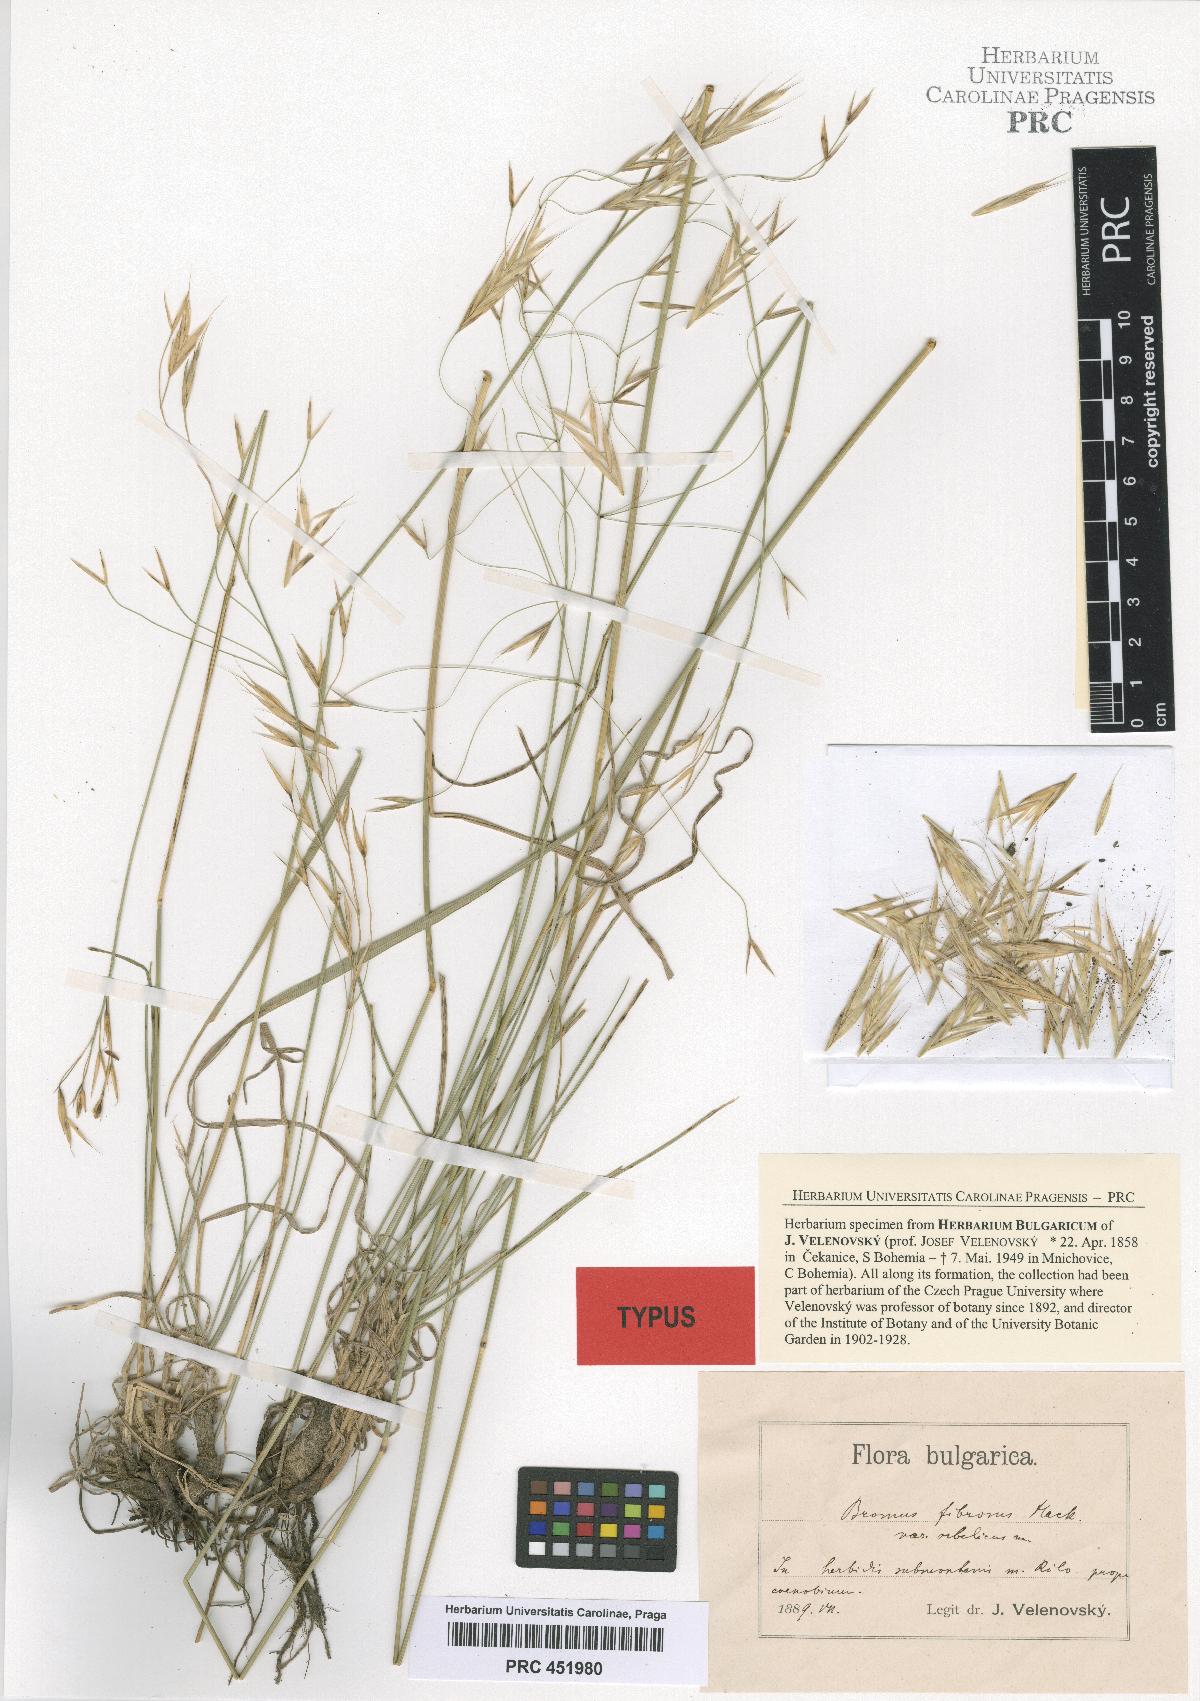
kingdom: Plantae
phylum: Tracheophyta
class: Liliopsida
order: Poales
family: Poaceae
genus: Bromus
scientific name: Bromus riparius
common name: Meadow brome
